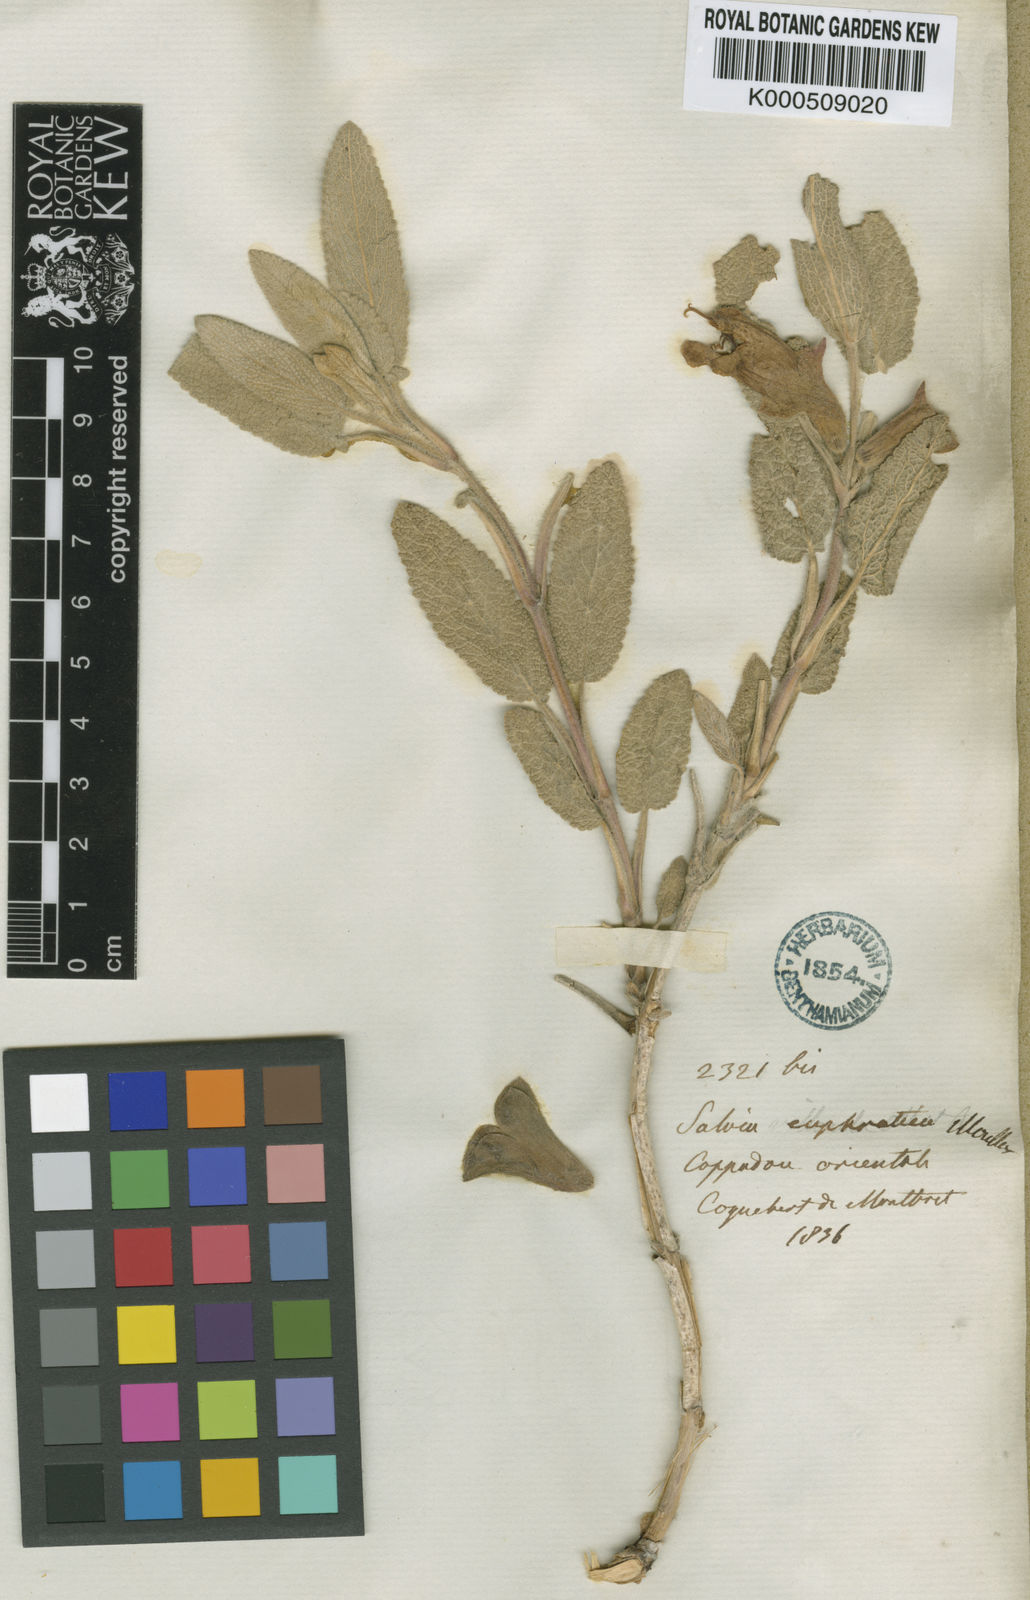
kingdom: Plantae
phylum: Tracheophyta
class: Magnoliopsida
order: Lamiales
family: Lamiaceae
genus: Salvia
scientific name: Salvia euphratica
